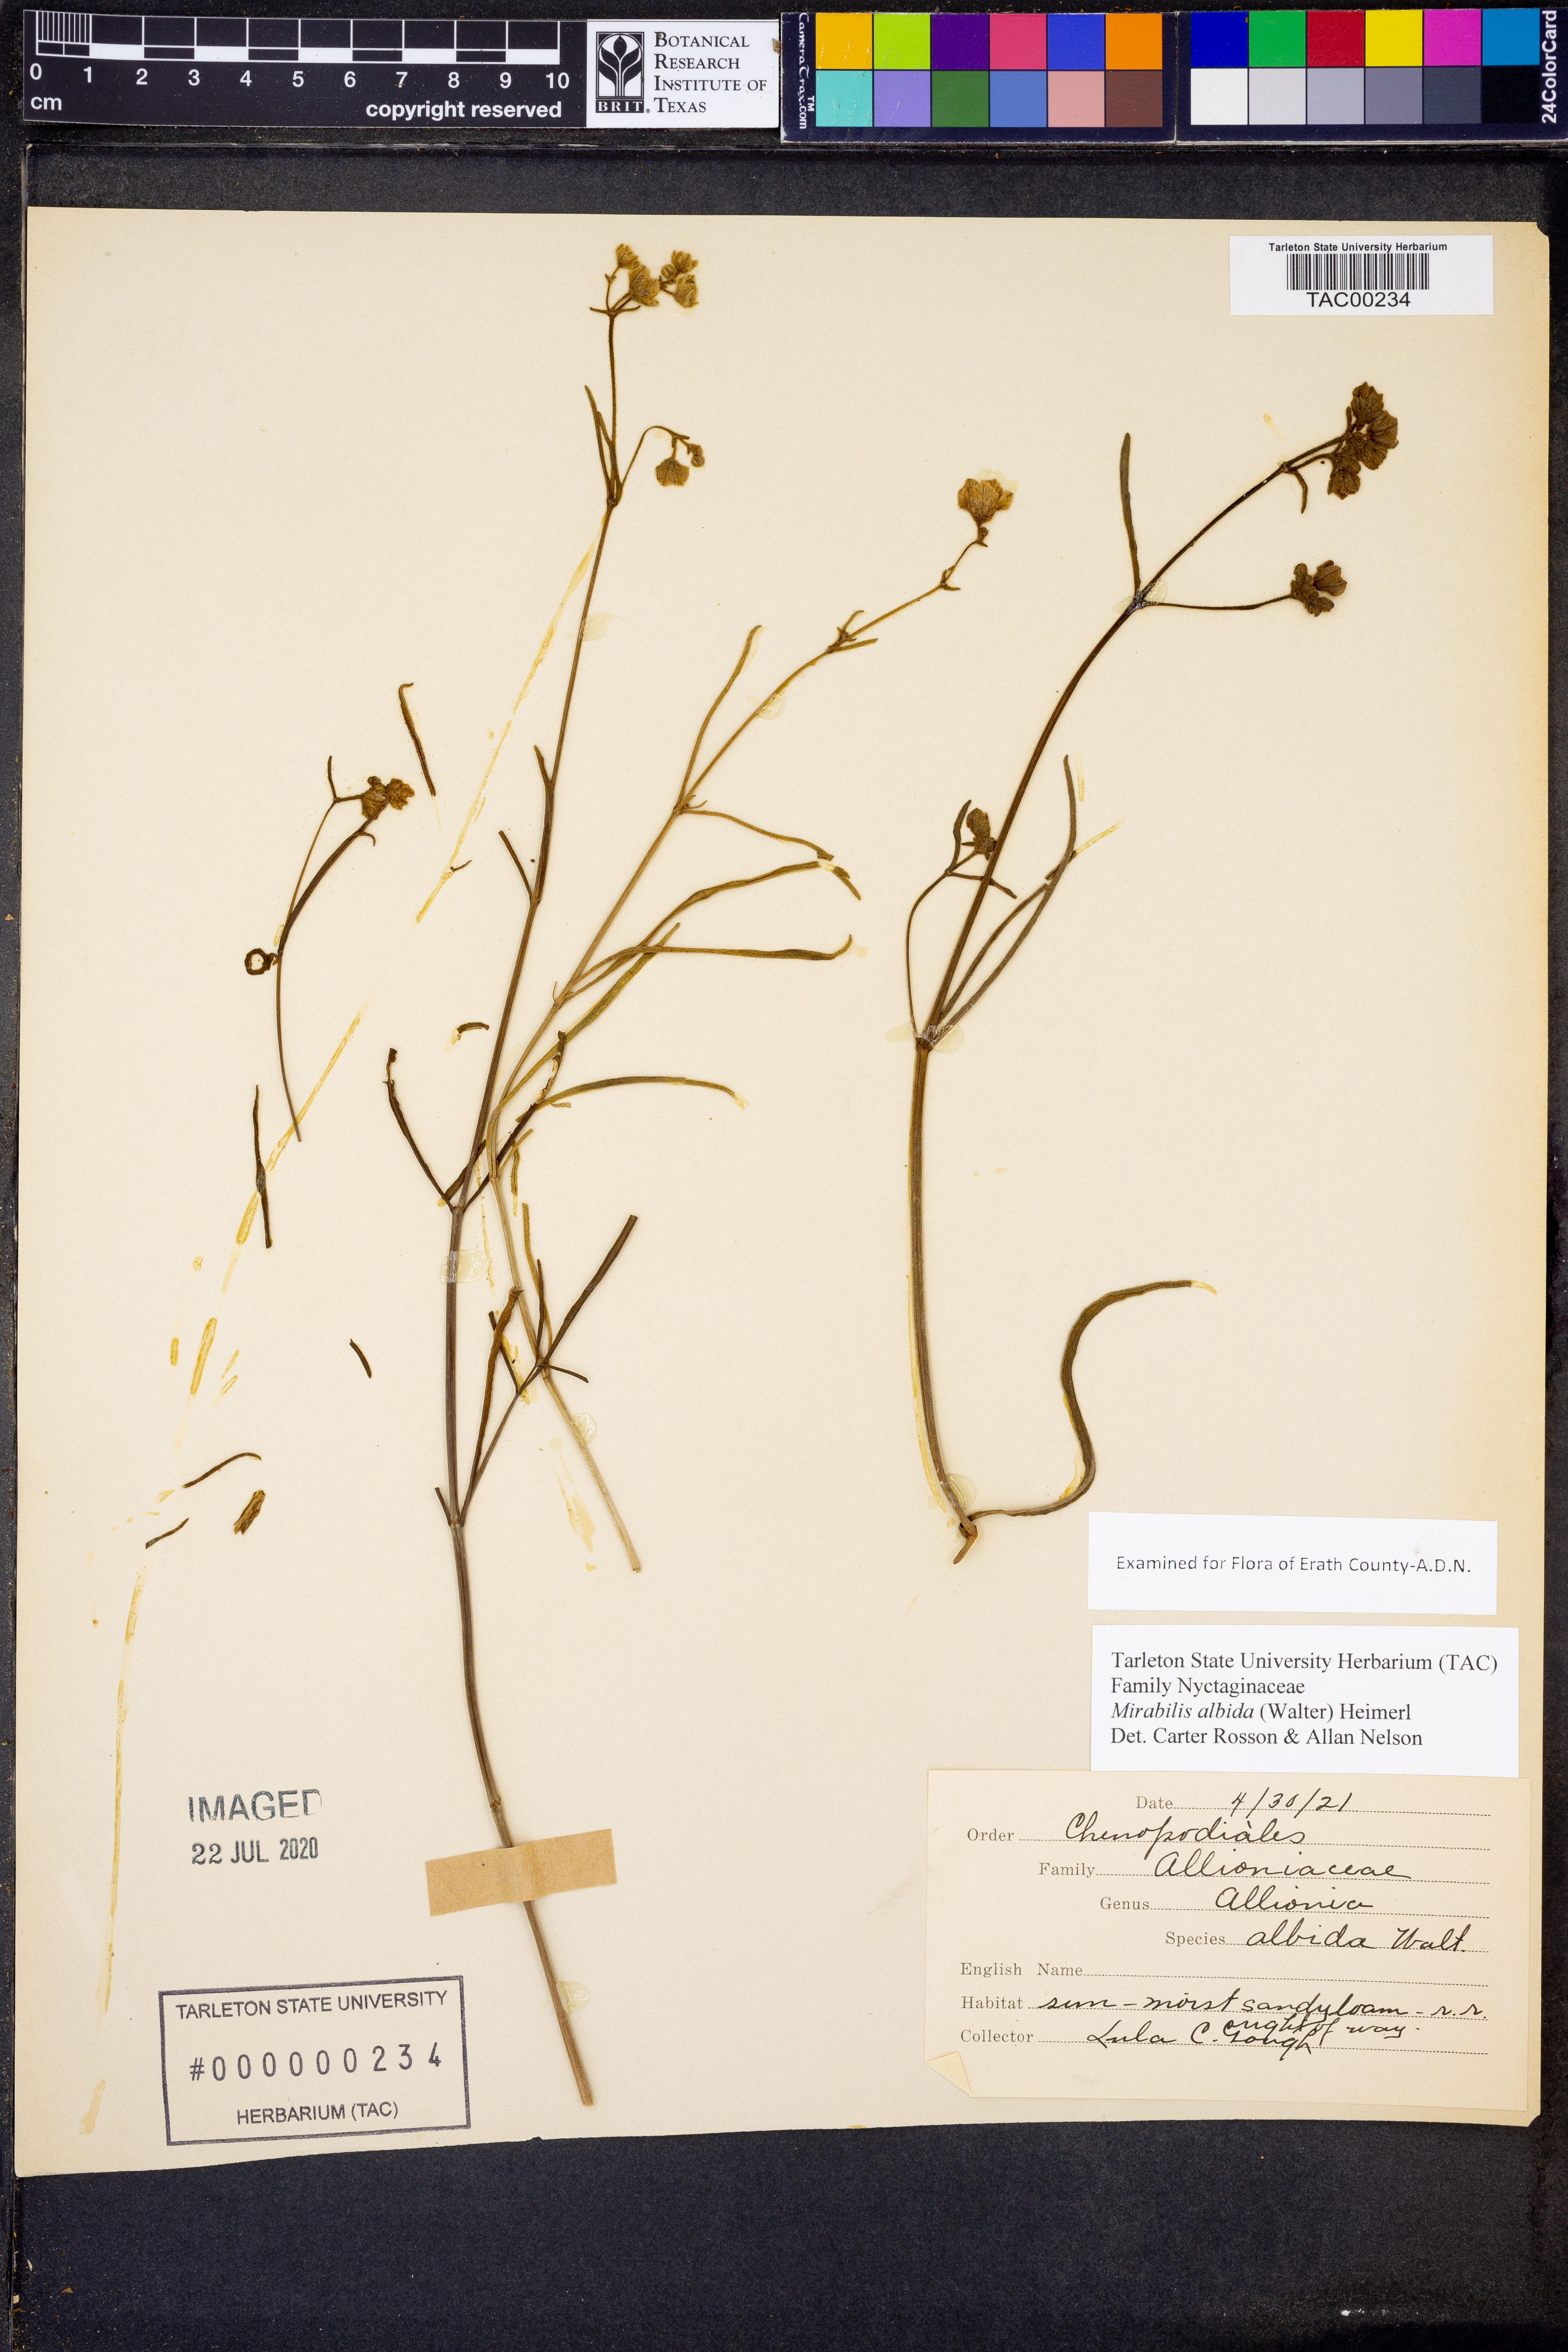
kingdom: Plantae
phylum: Tracheophyta
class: Magnoliopsida
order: Caryophyllales
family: Nyctaginaceae
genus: Mirabilis
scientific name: Mirabilis albida
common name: Hairy four-o'clock
